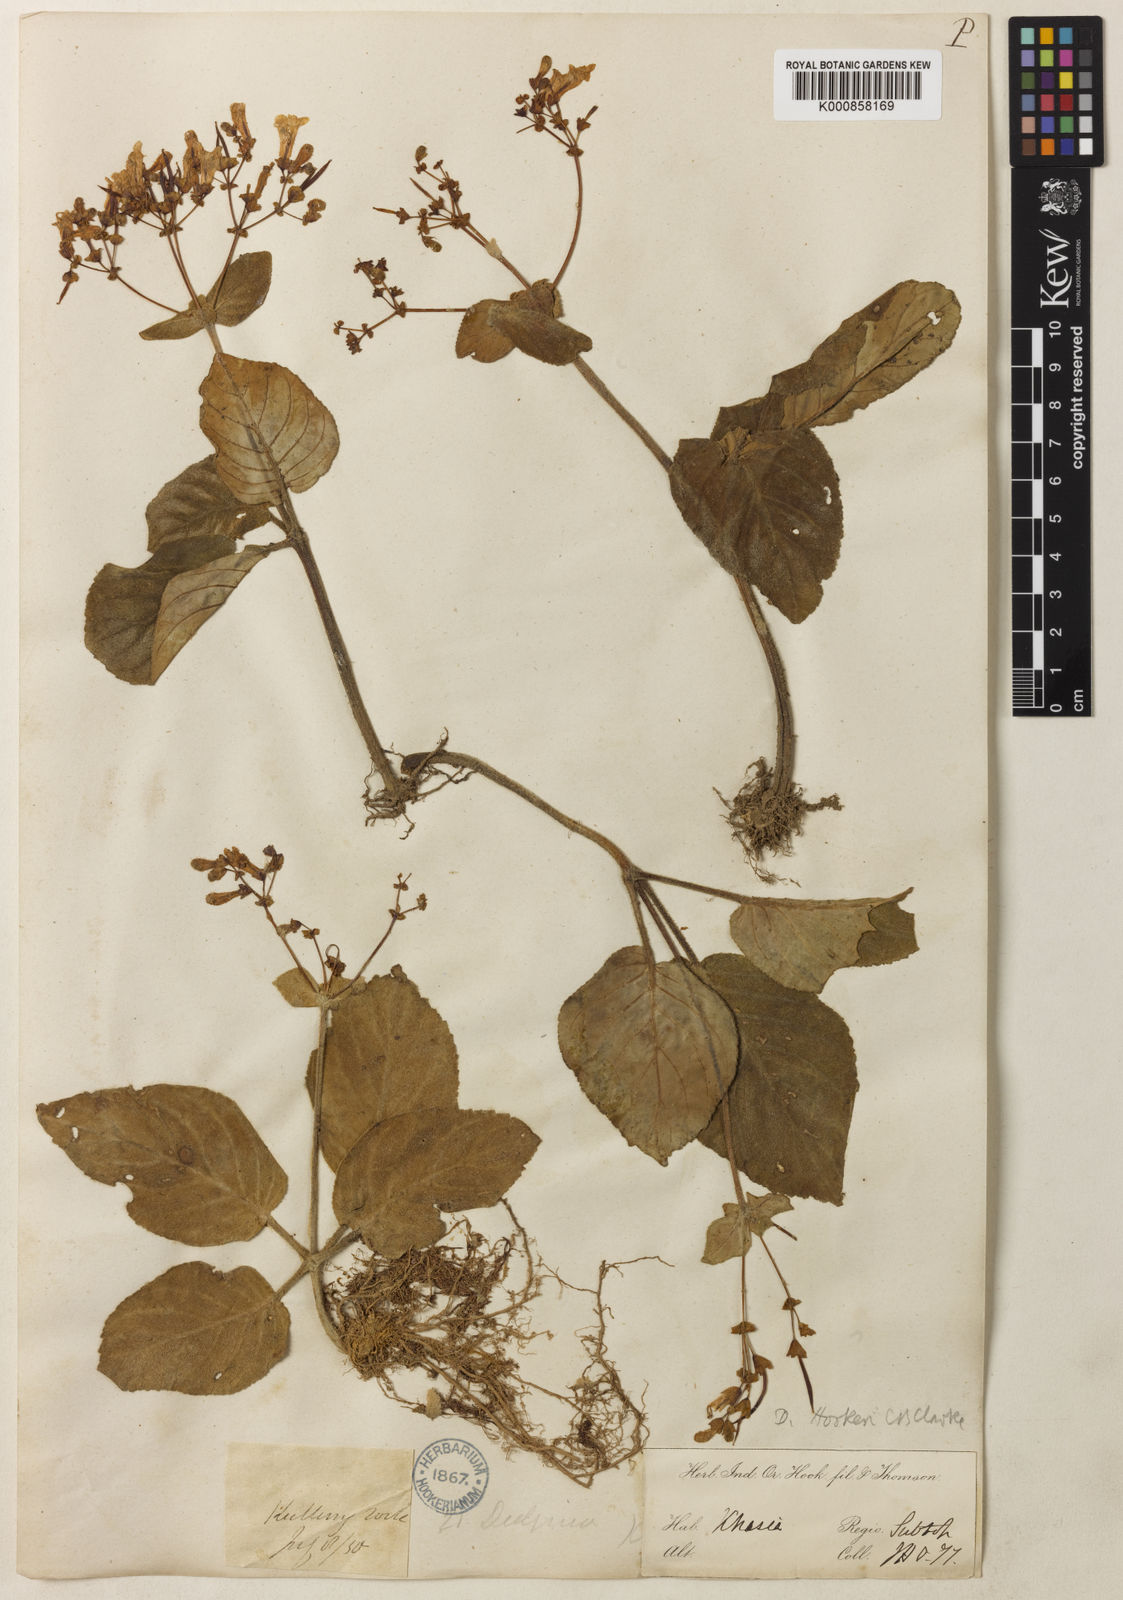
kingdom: Plantae
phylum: Tracheophyta
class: Magnoliopsida
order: Lamiales
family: Gesneriaceae
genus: Henckelia
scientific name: Henckelia
